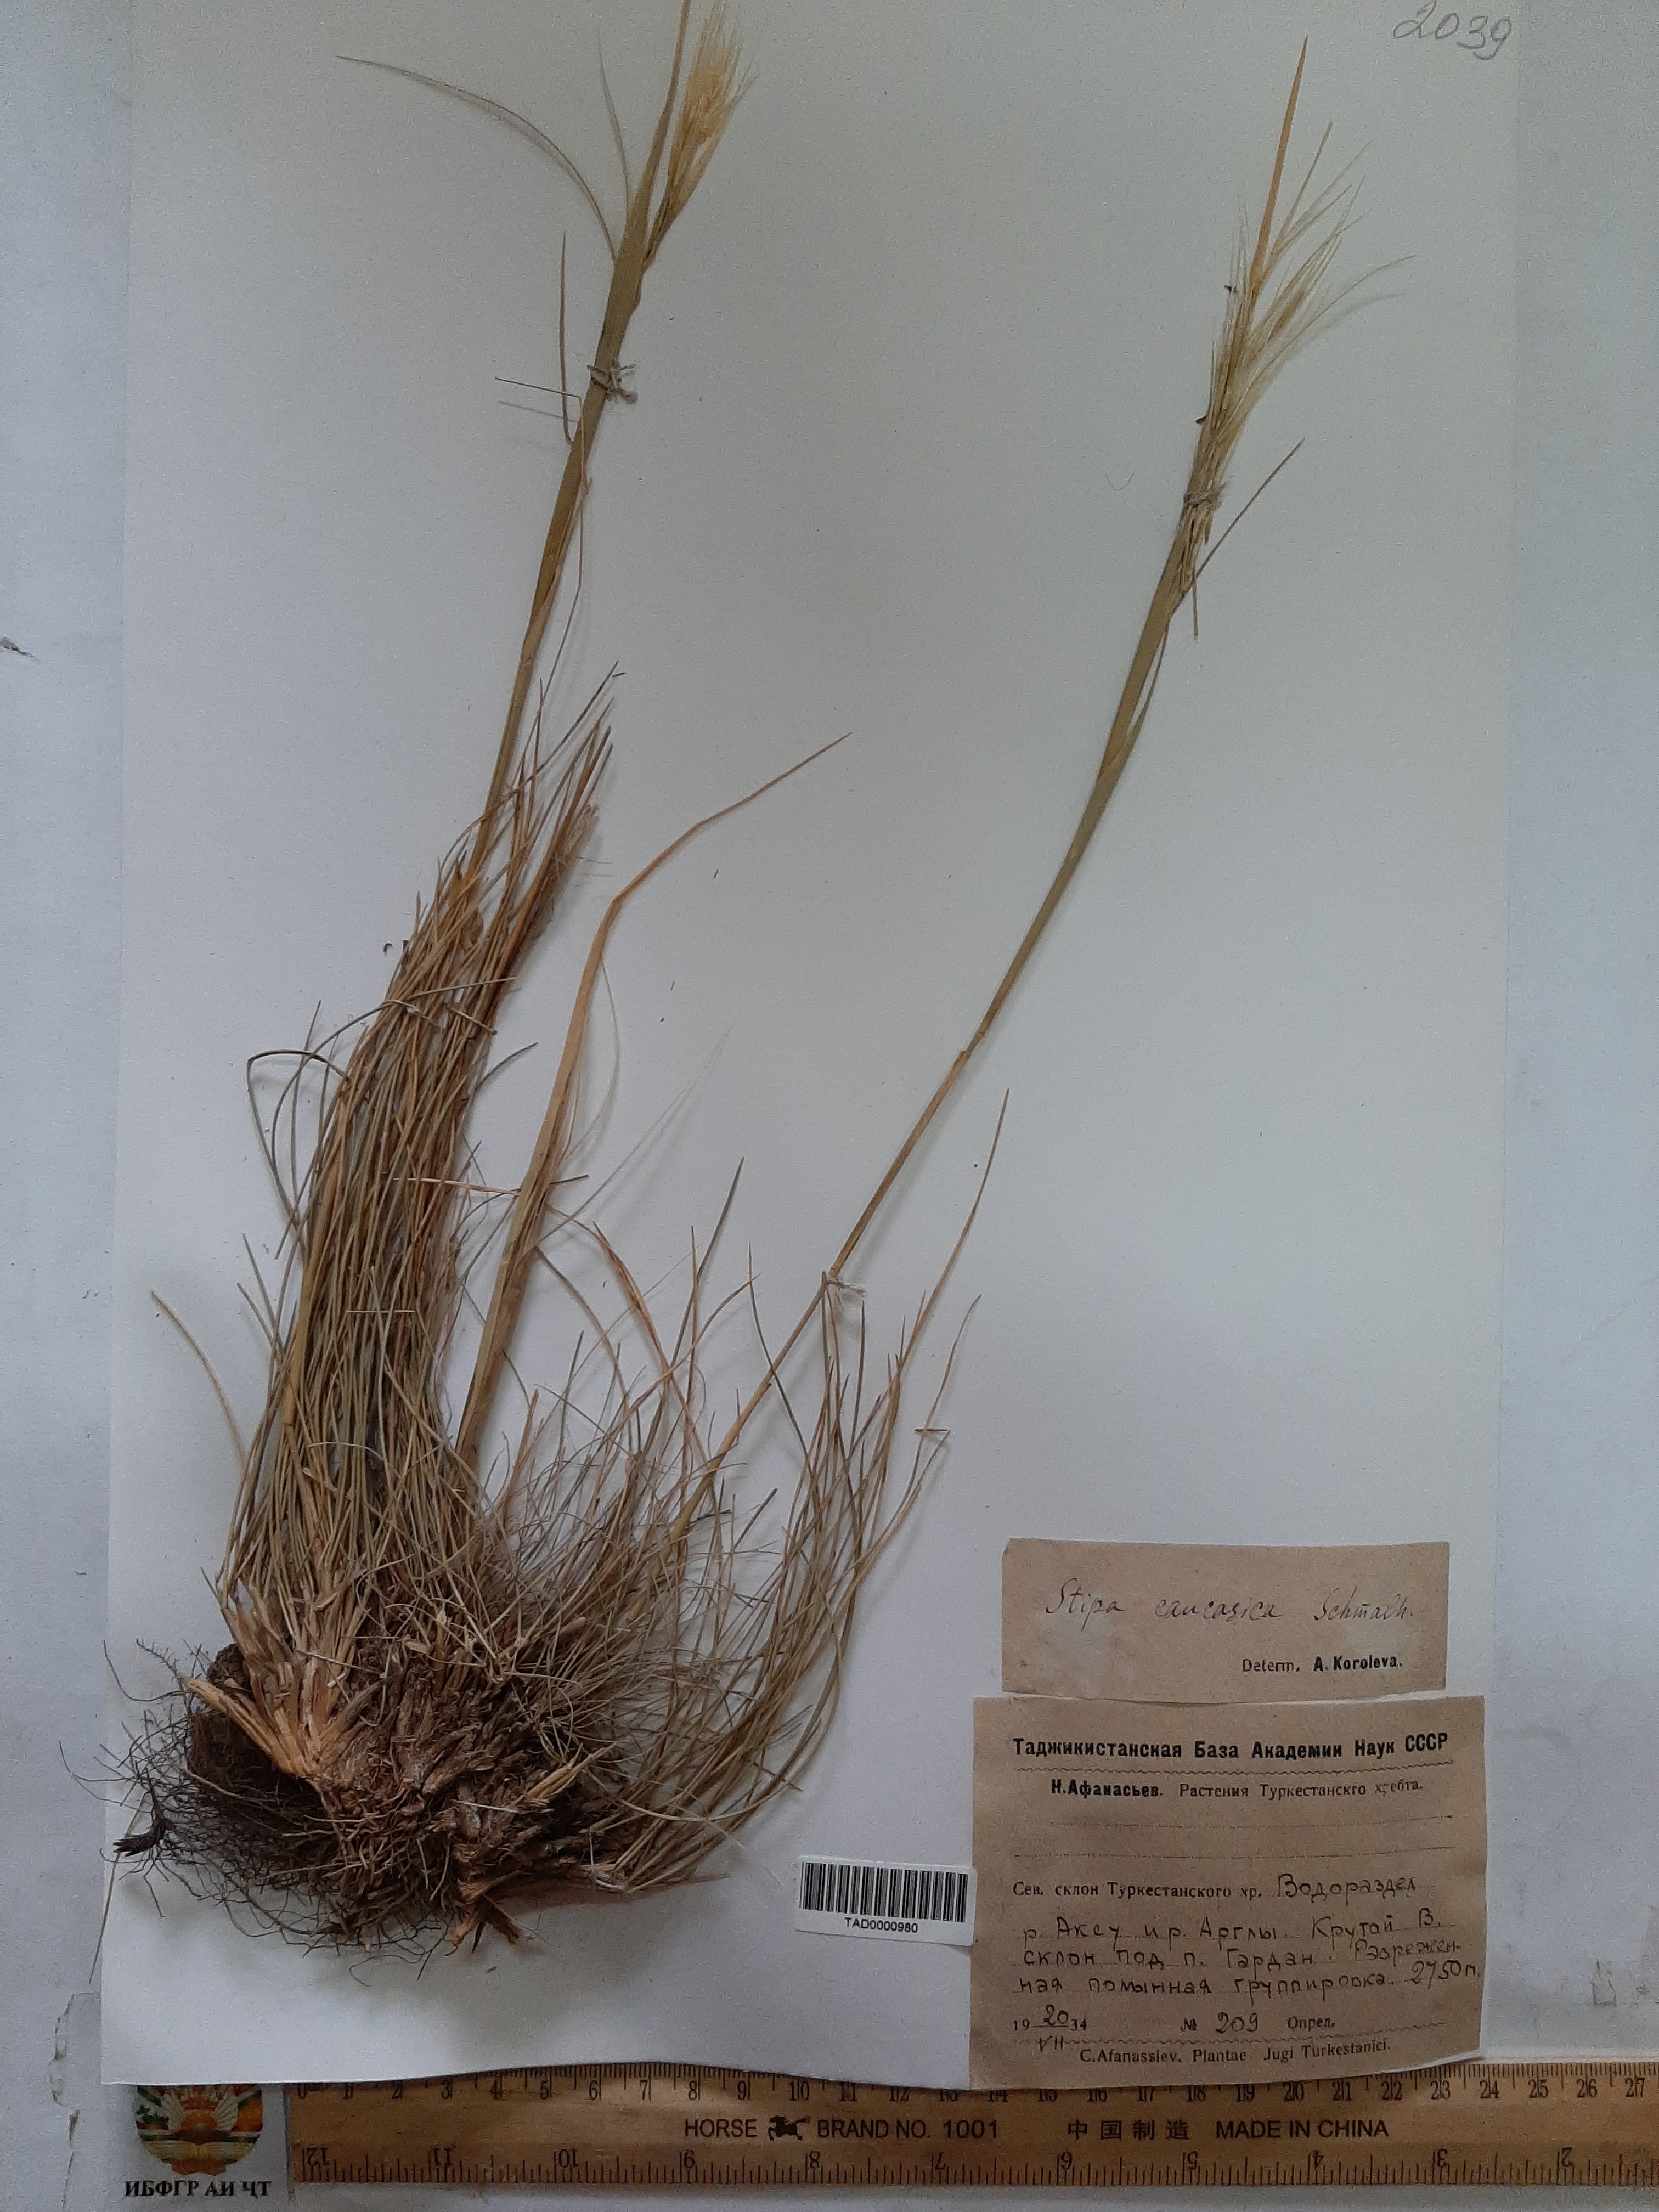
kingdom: Plantae
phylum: Tracheophyta
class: Liliopsida
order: Poales
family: Poaceae
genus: Stipa
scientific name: Stipa caucasica
